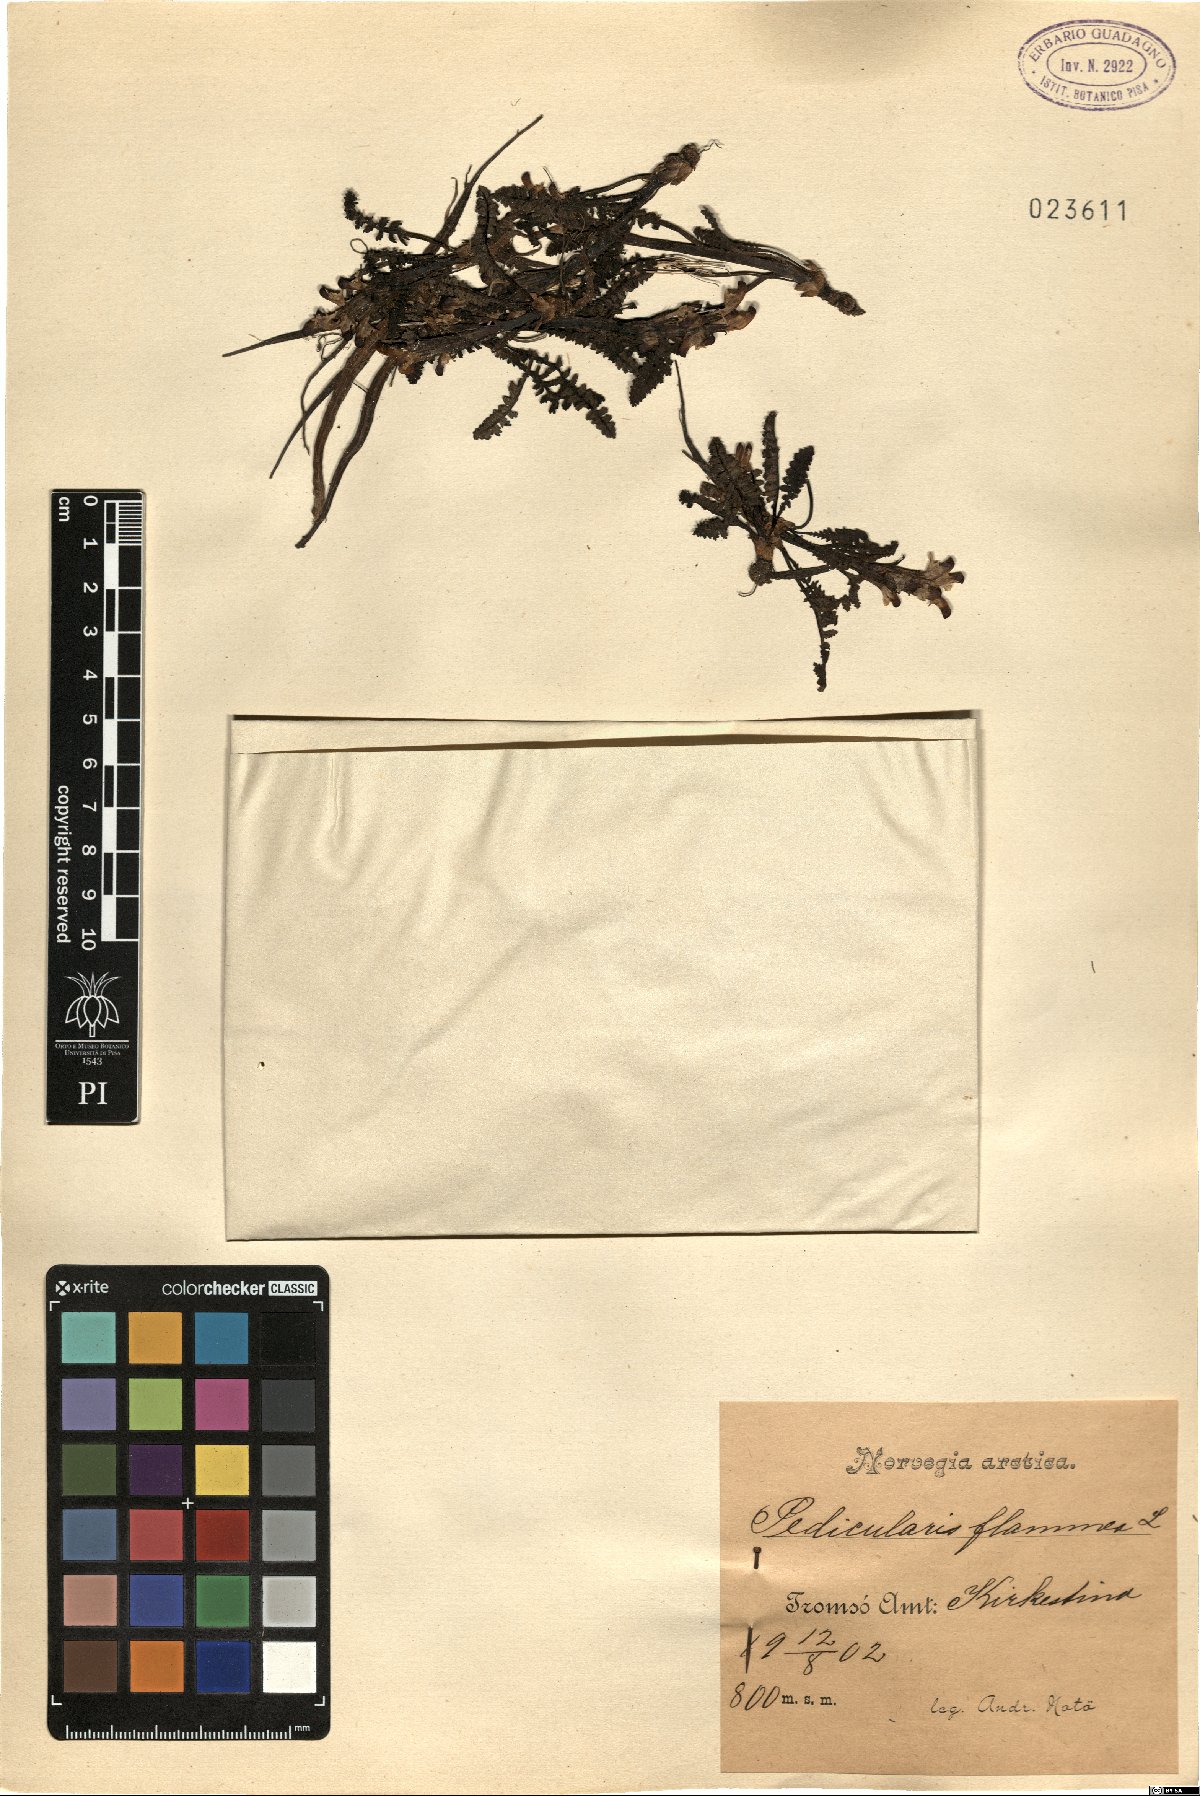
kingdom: Plantae
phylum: Tracheophyta
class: Magnoliopsida
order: Lamiales
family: Orobanchaceae
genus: Pedicularis
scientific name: Pedicularis flammea
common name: Flame-coloured lousewort
